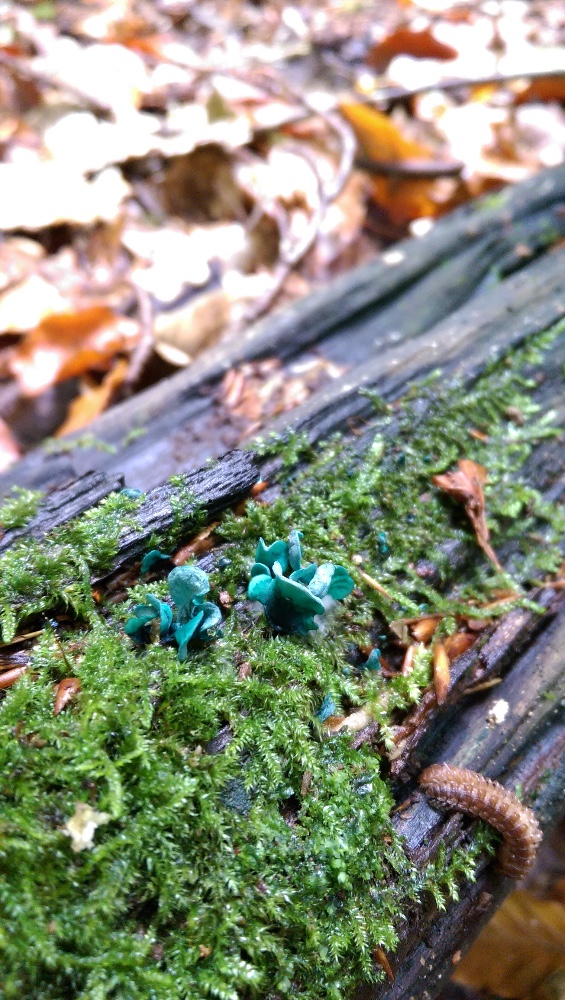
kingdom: Fungi
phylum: Ascomycota
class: Leotiomycetes
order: Helotiales
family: Chlorociboriaceae
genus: Chlorociboria
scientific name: Chlorociboria aeruginascens
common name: almindelig grønskive
